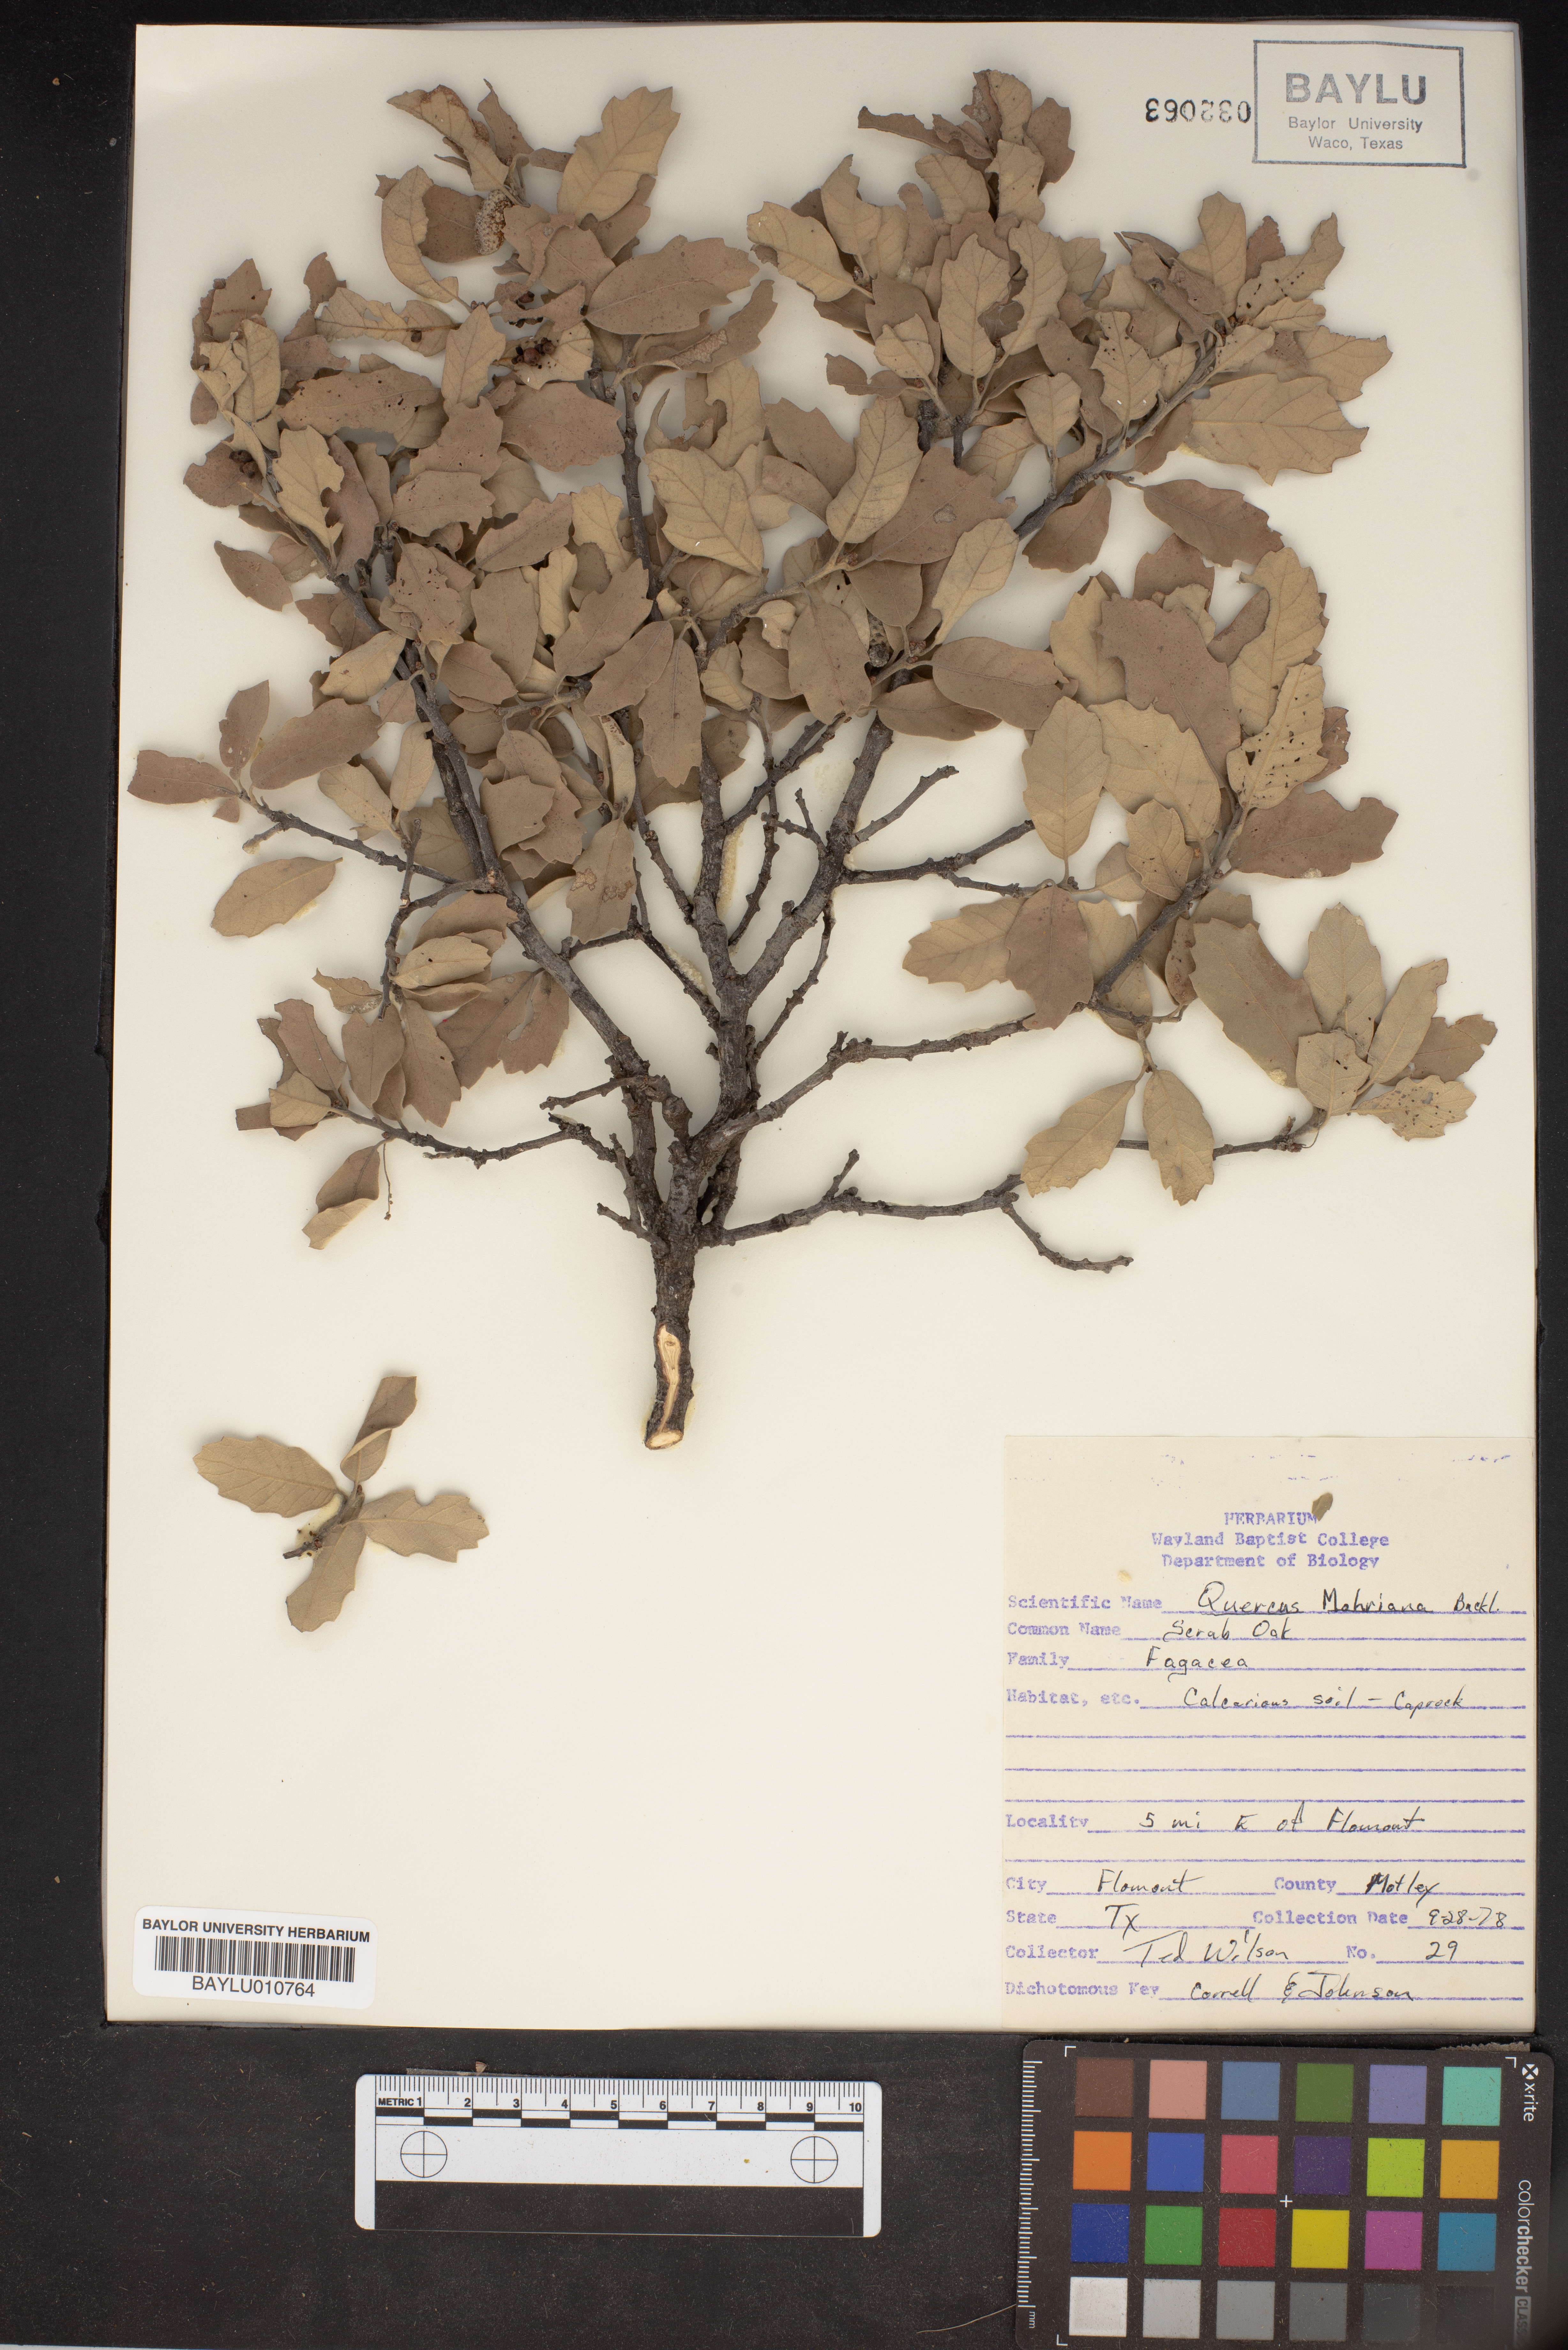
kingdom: Plantae
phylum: Tracheophyta
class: Magnoliopsida
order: Fagales
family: Fagaceae
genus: Quercus
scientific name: Quercus mohriana
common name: Mohr oak
